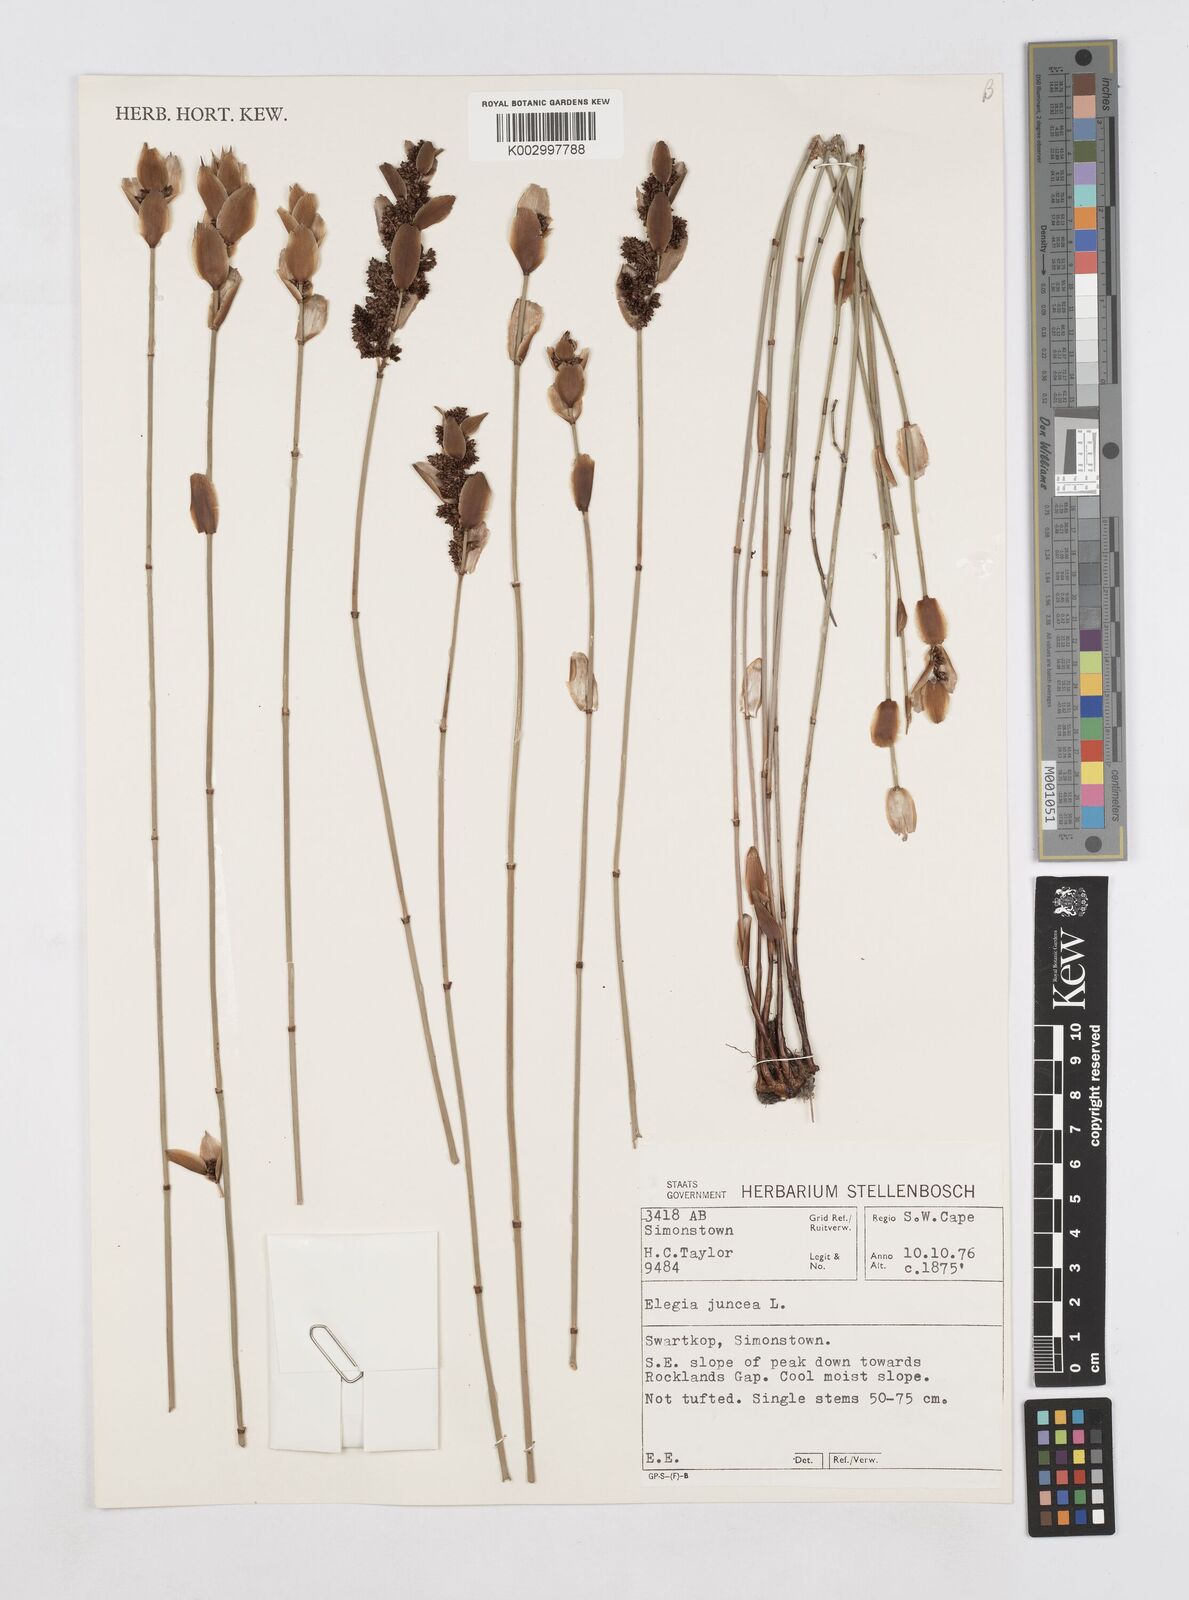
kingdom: Plantae
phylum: Tracheophyta
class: Liliopsida
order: Poales
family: Restionaceae
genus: Elegia
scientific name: Elegia juncea
